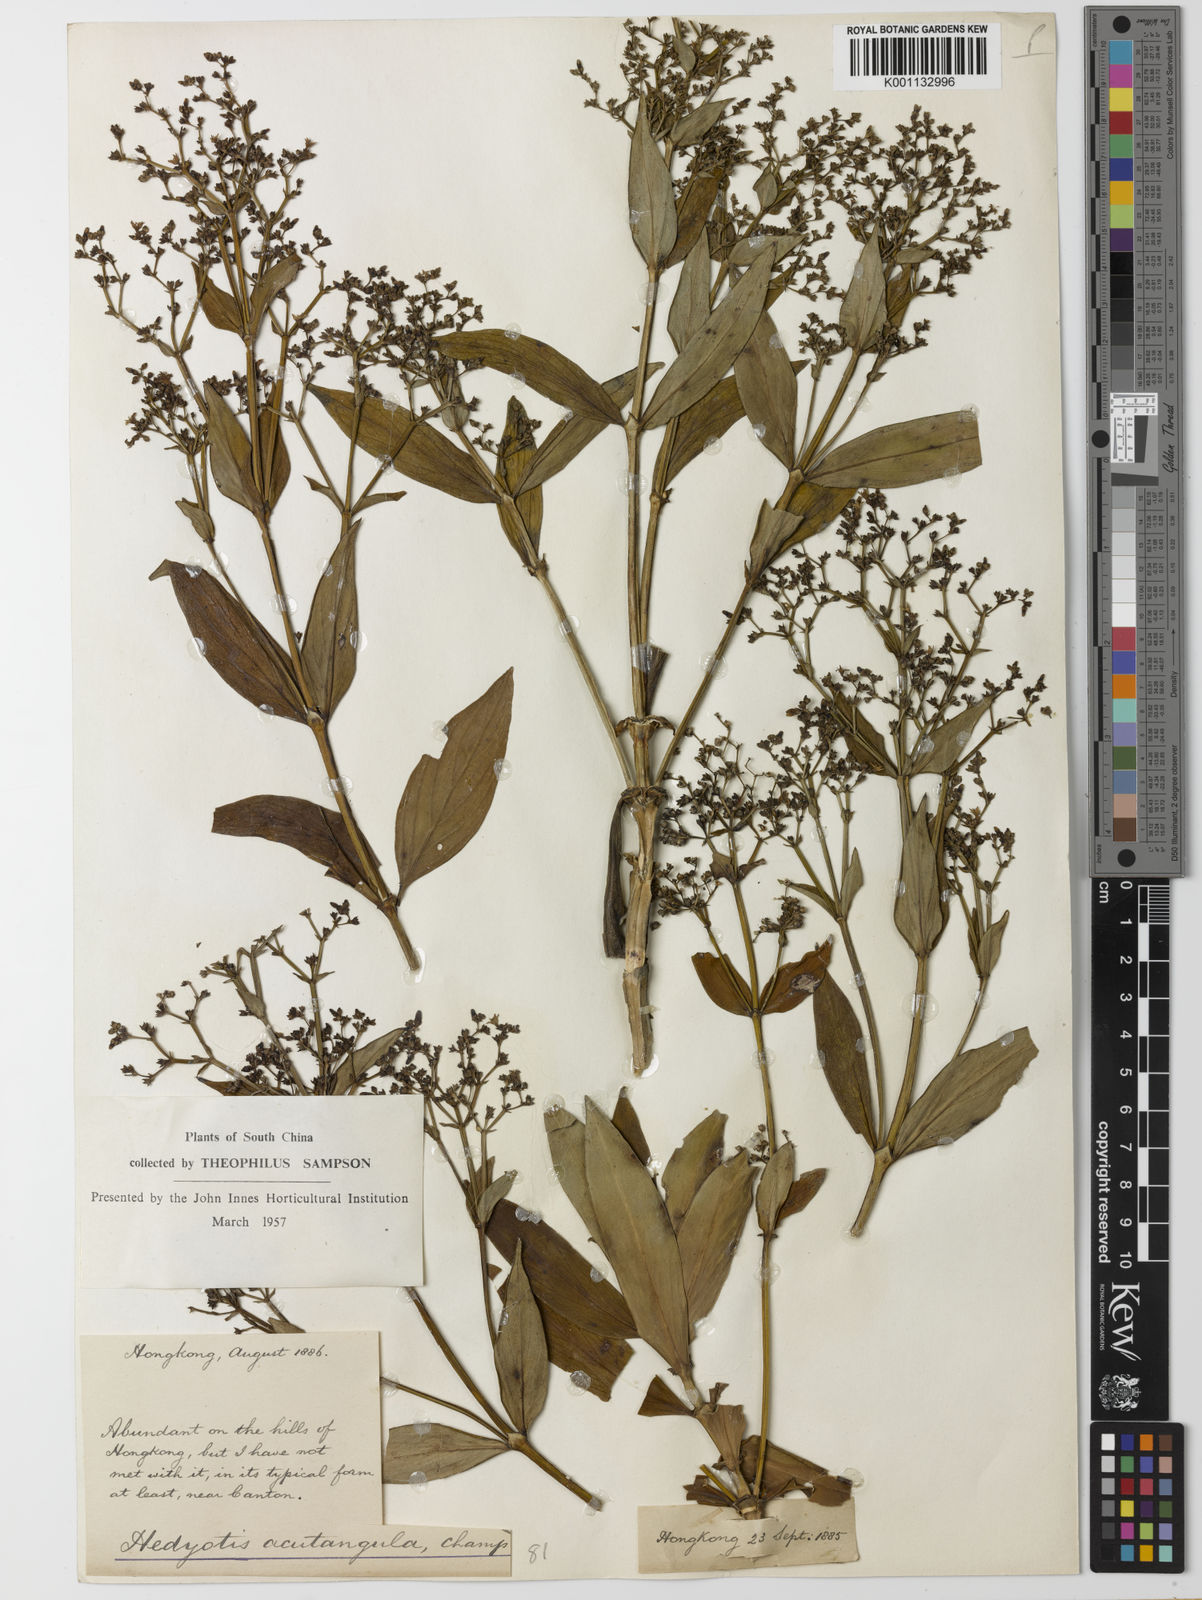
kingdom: Plantae
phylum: Tracheophyta
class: Magnoliopsida
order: Gentianales
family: Rubiaceae
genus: Hedyotis
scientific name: Hedyotis acutangula
